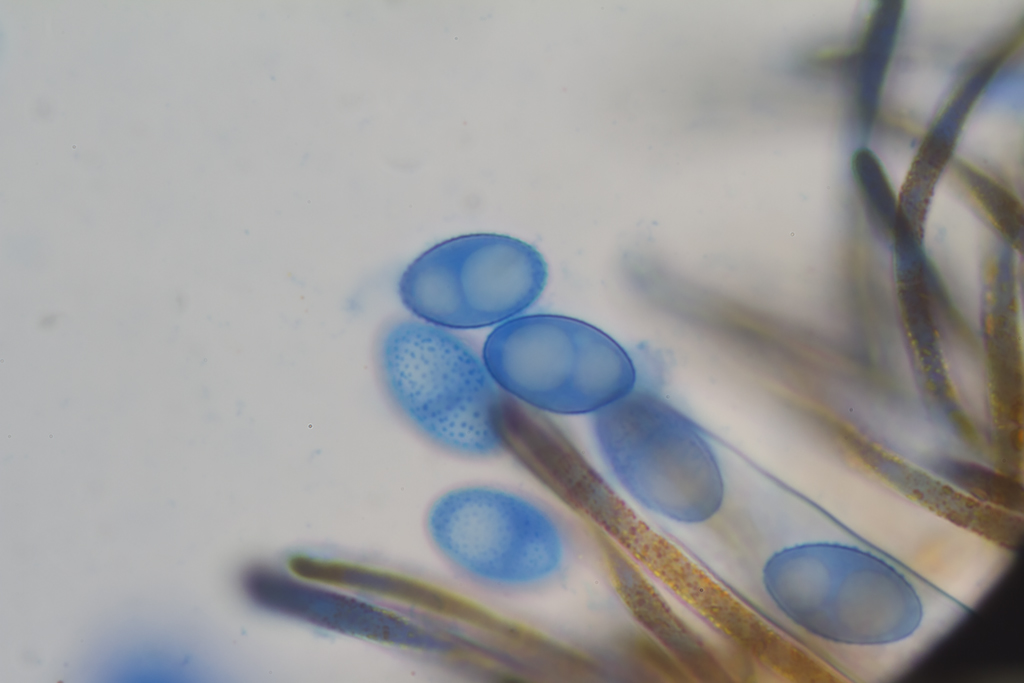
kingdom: Fungi
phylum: Ascomycota
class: Pezizomycetes
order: Pezizales
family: Pyronemataceae
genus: Neottiella
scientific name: Neottiella vivida
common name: sand-mosbæger
